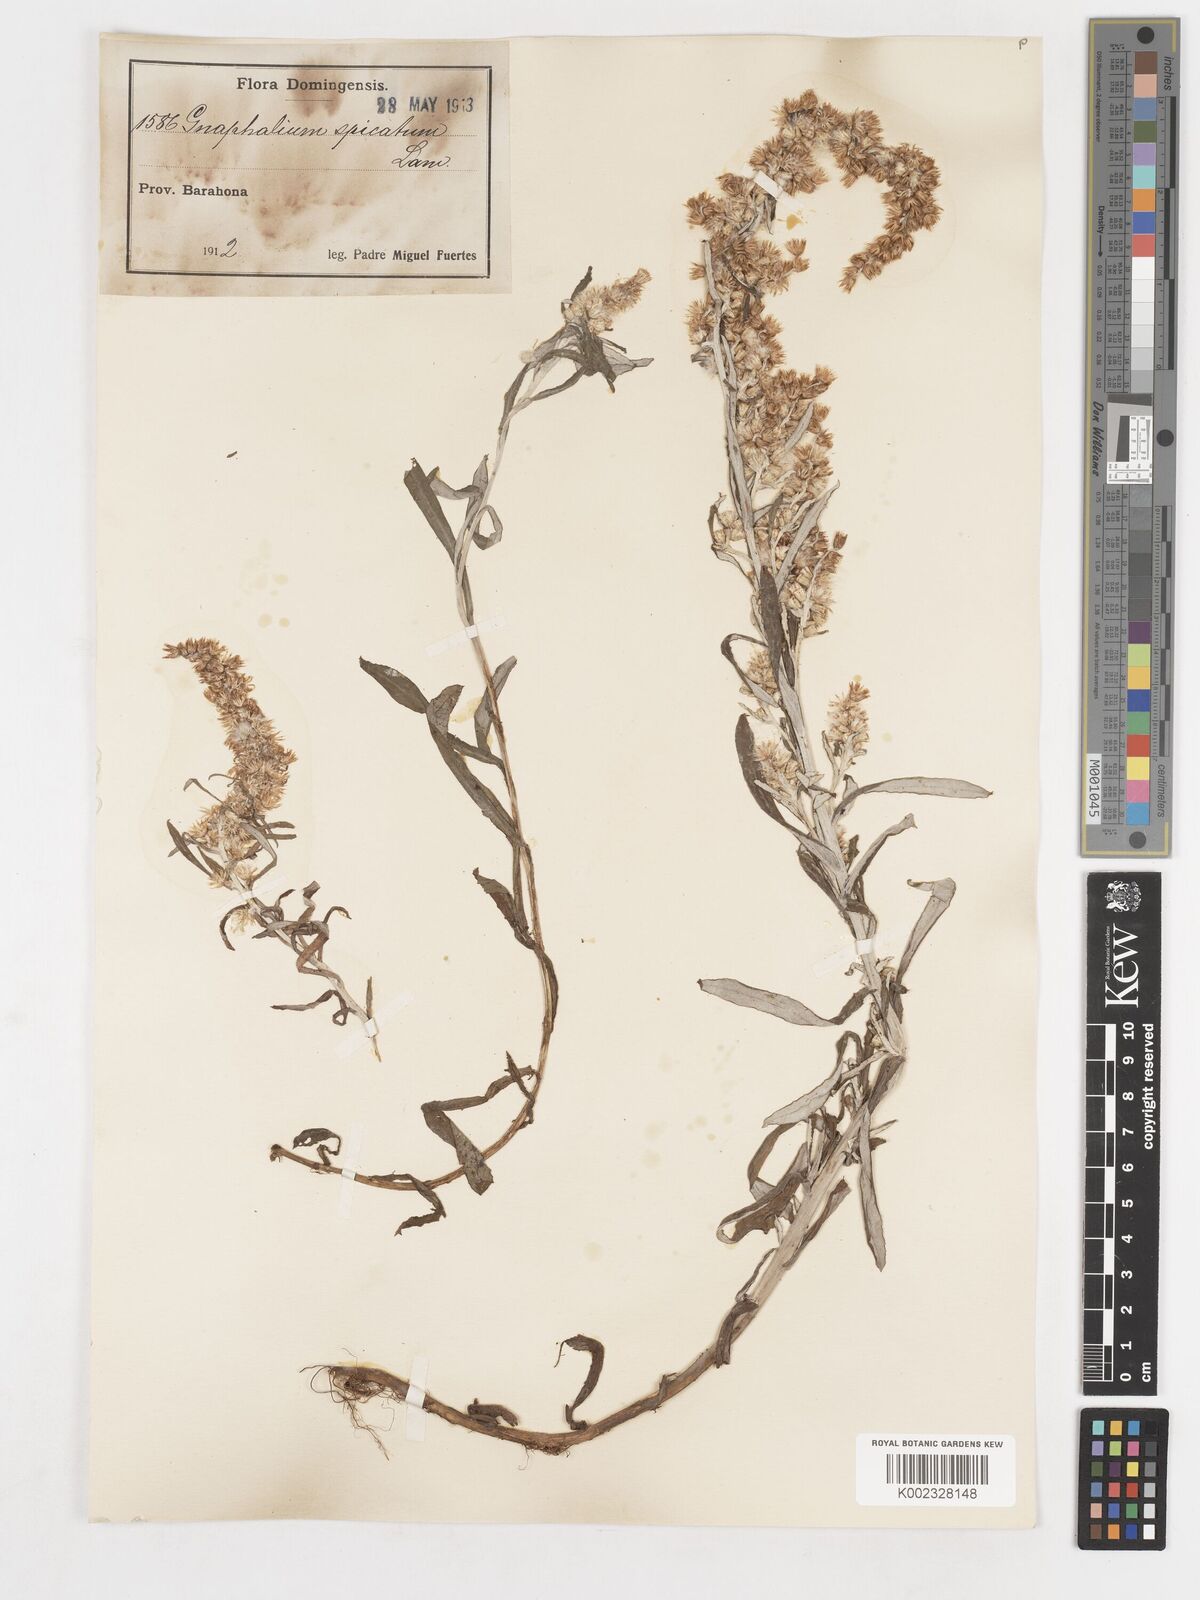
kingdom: Plantae
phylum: Tracheophyta
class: Magnoliopsida
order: Asterales
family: Asteraceae
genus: Gamochaeta
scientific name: Gamochaeta
